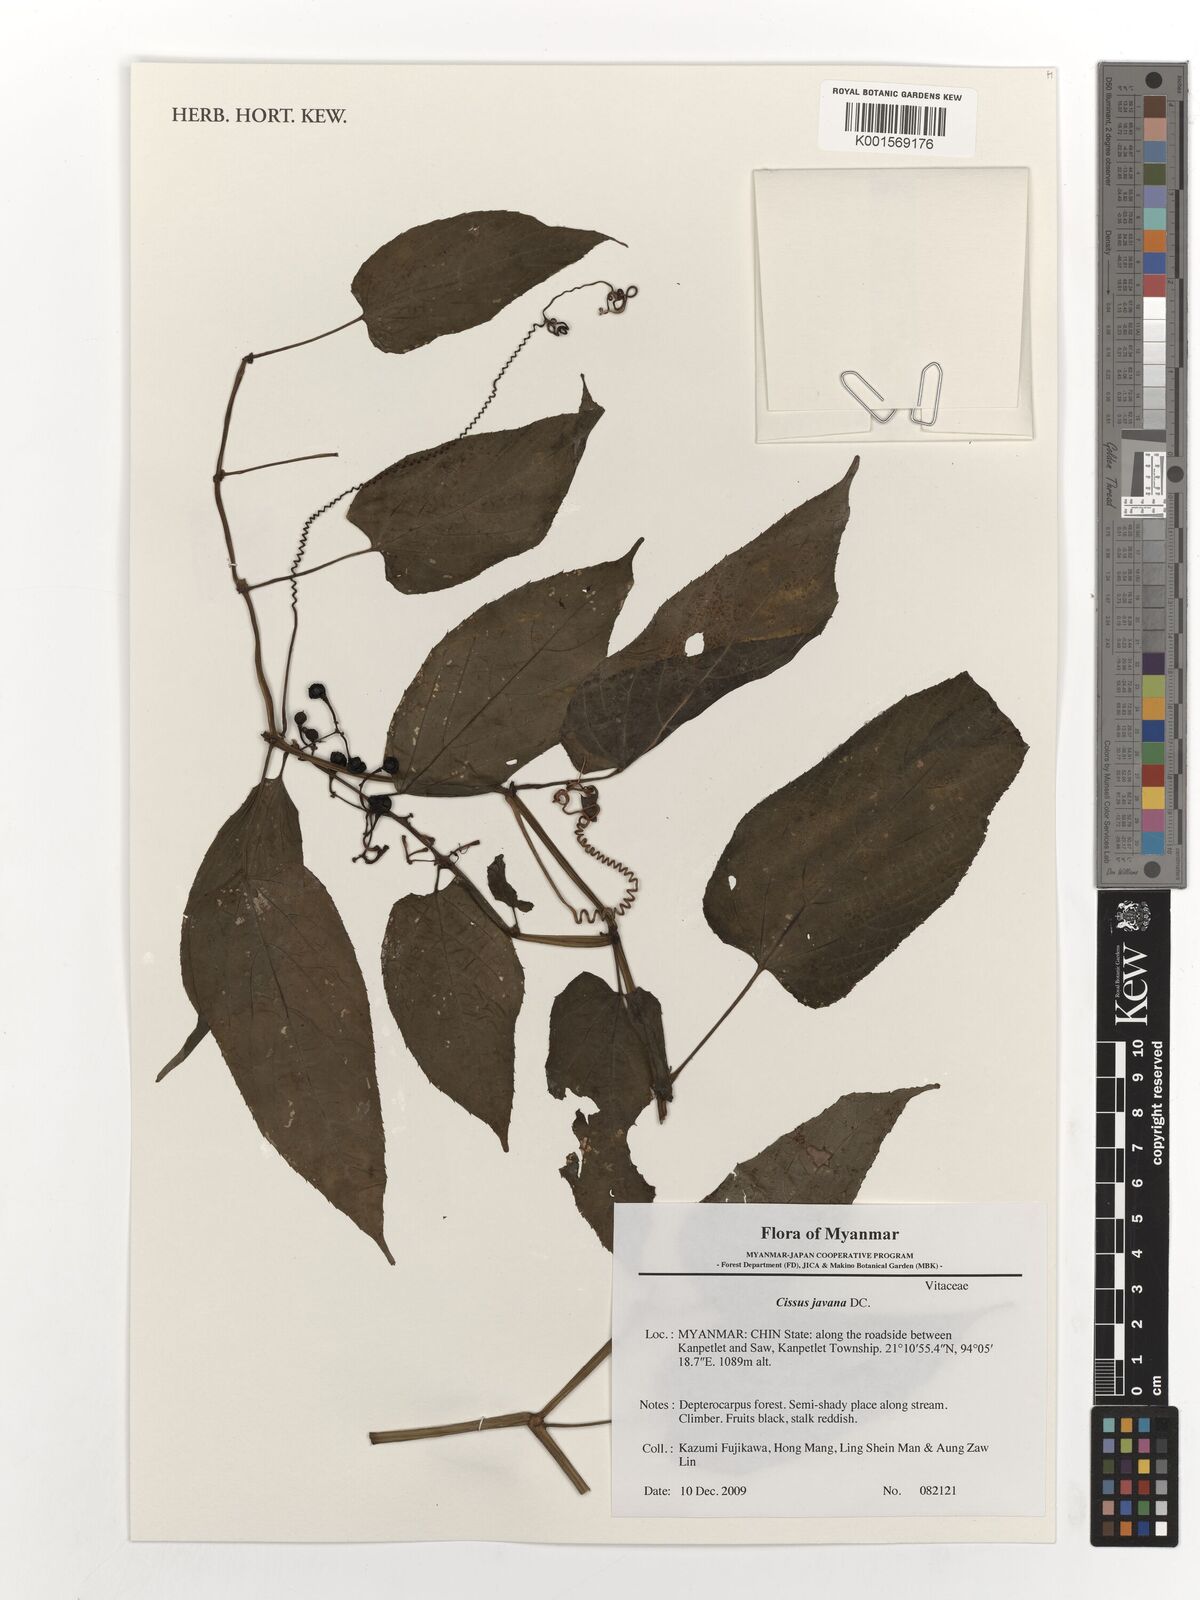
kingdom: Plantae
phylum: Tracheophyta
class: Magnoliopsida
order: Vitales
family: Vitaceae
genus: Cissus
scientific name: Cissus discolor
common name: Climbing-begonia
